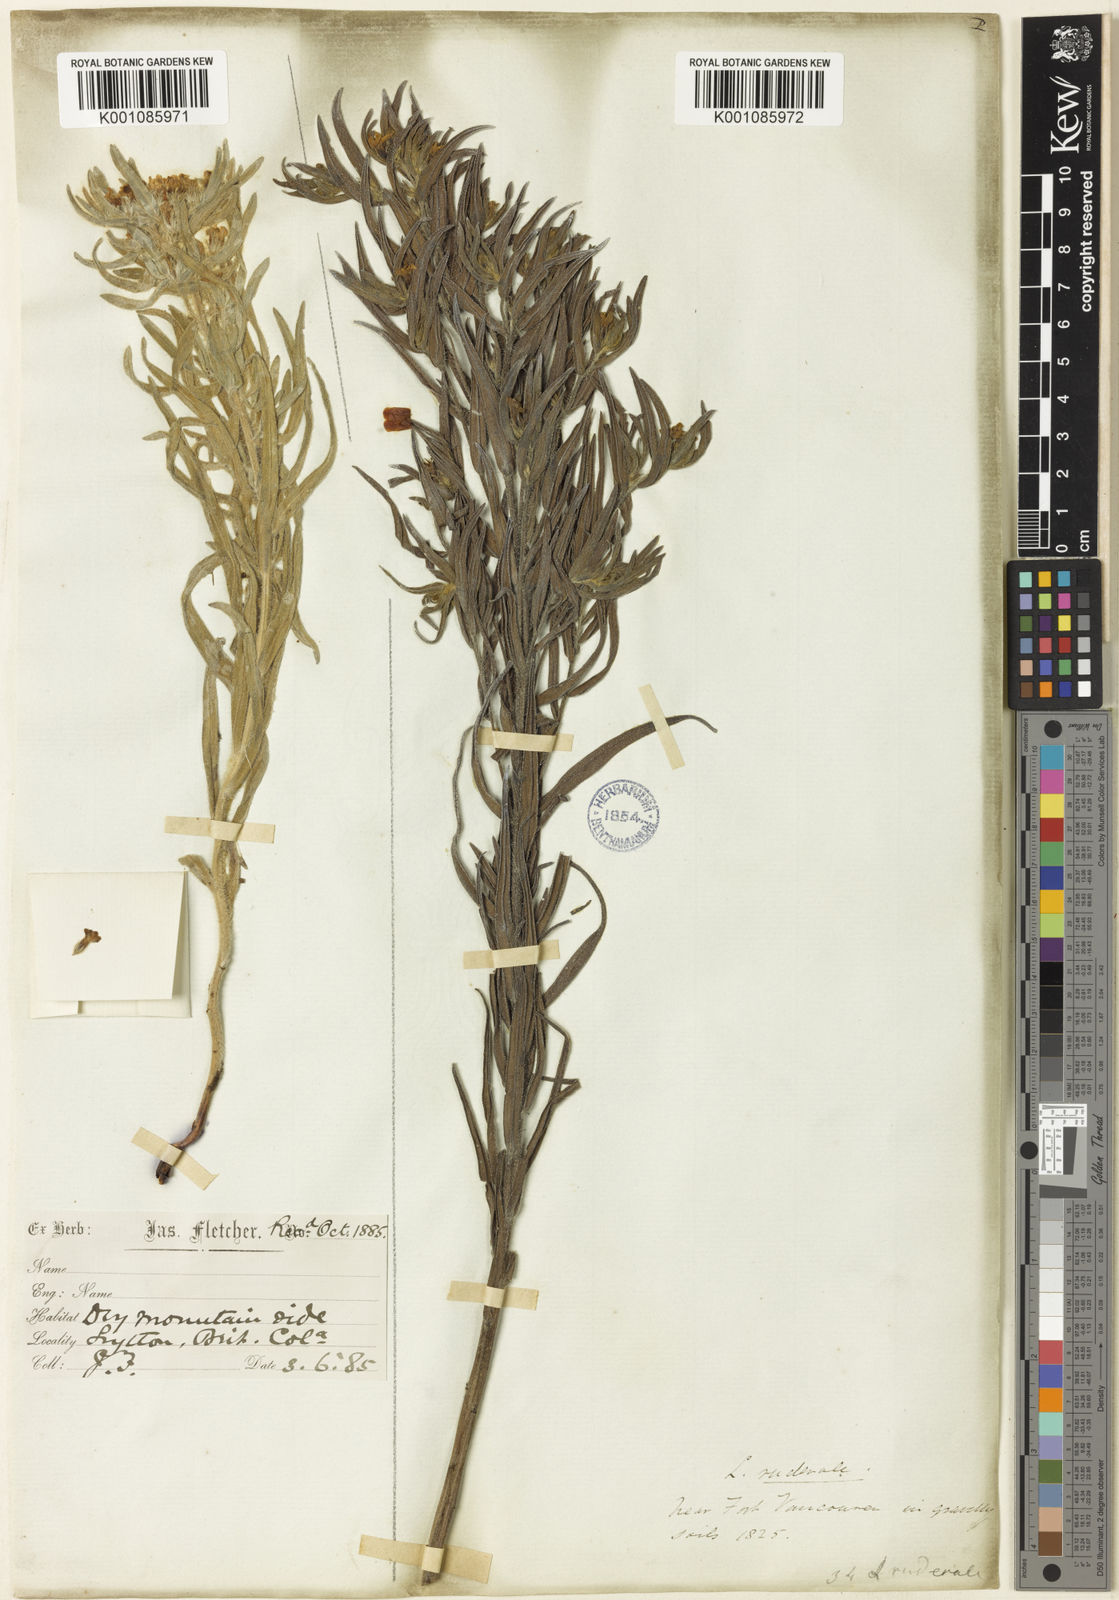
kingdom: Plantae
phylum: Tracheophyta
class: Magnoliopsida
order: Boraginales
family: Boraginaceae
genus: Lithospermum
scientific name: Lithospermum ruderale
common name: Western gromwell
